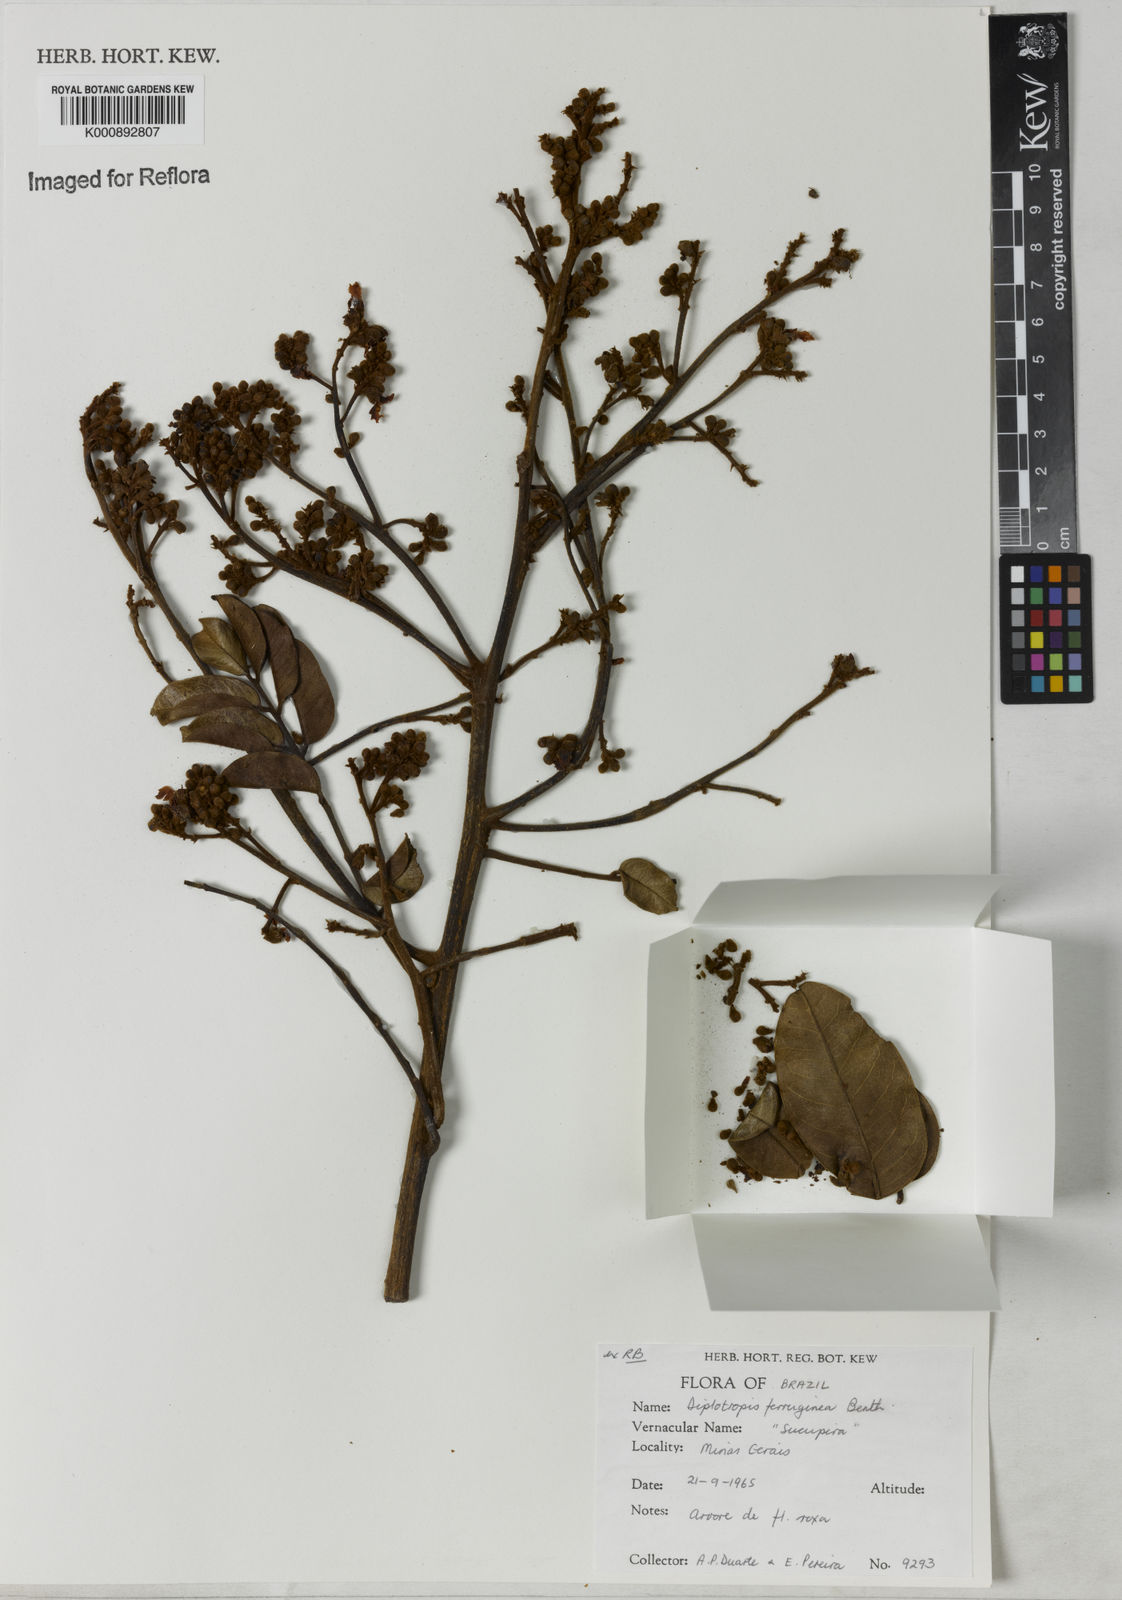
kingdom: Plantae
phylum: Tracheophyta
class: Magnoliopsida
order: Fabales
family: Fabaceae
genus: Diplotropis
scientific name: Diplotropis ferruginea
